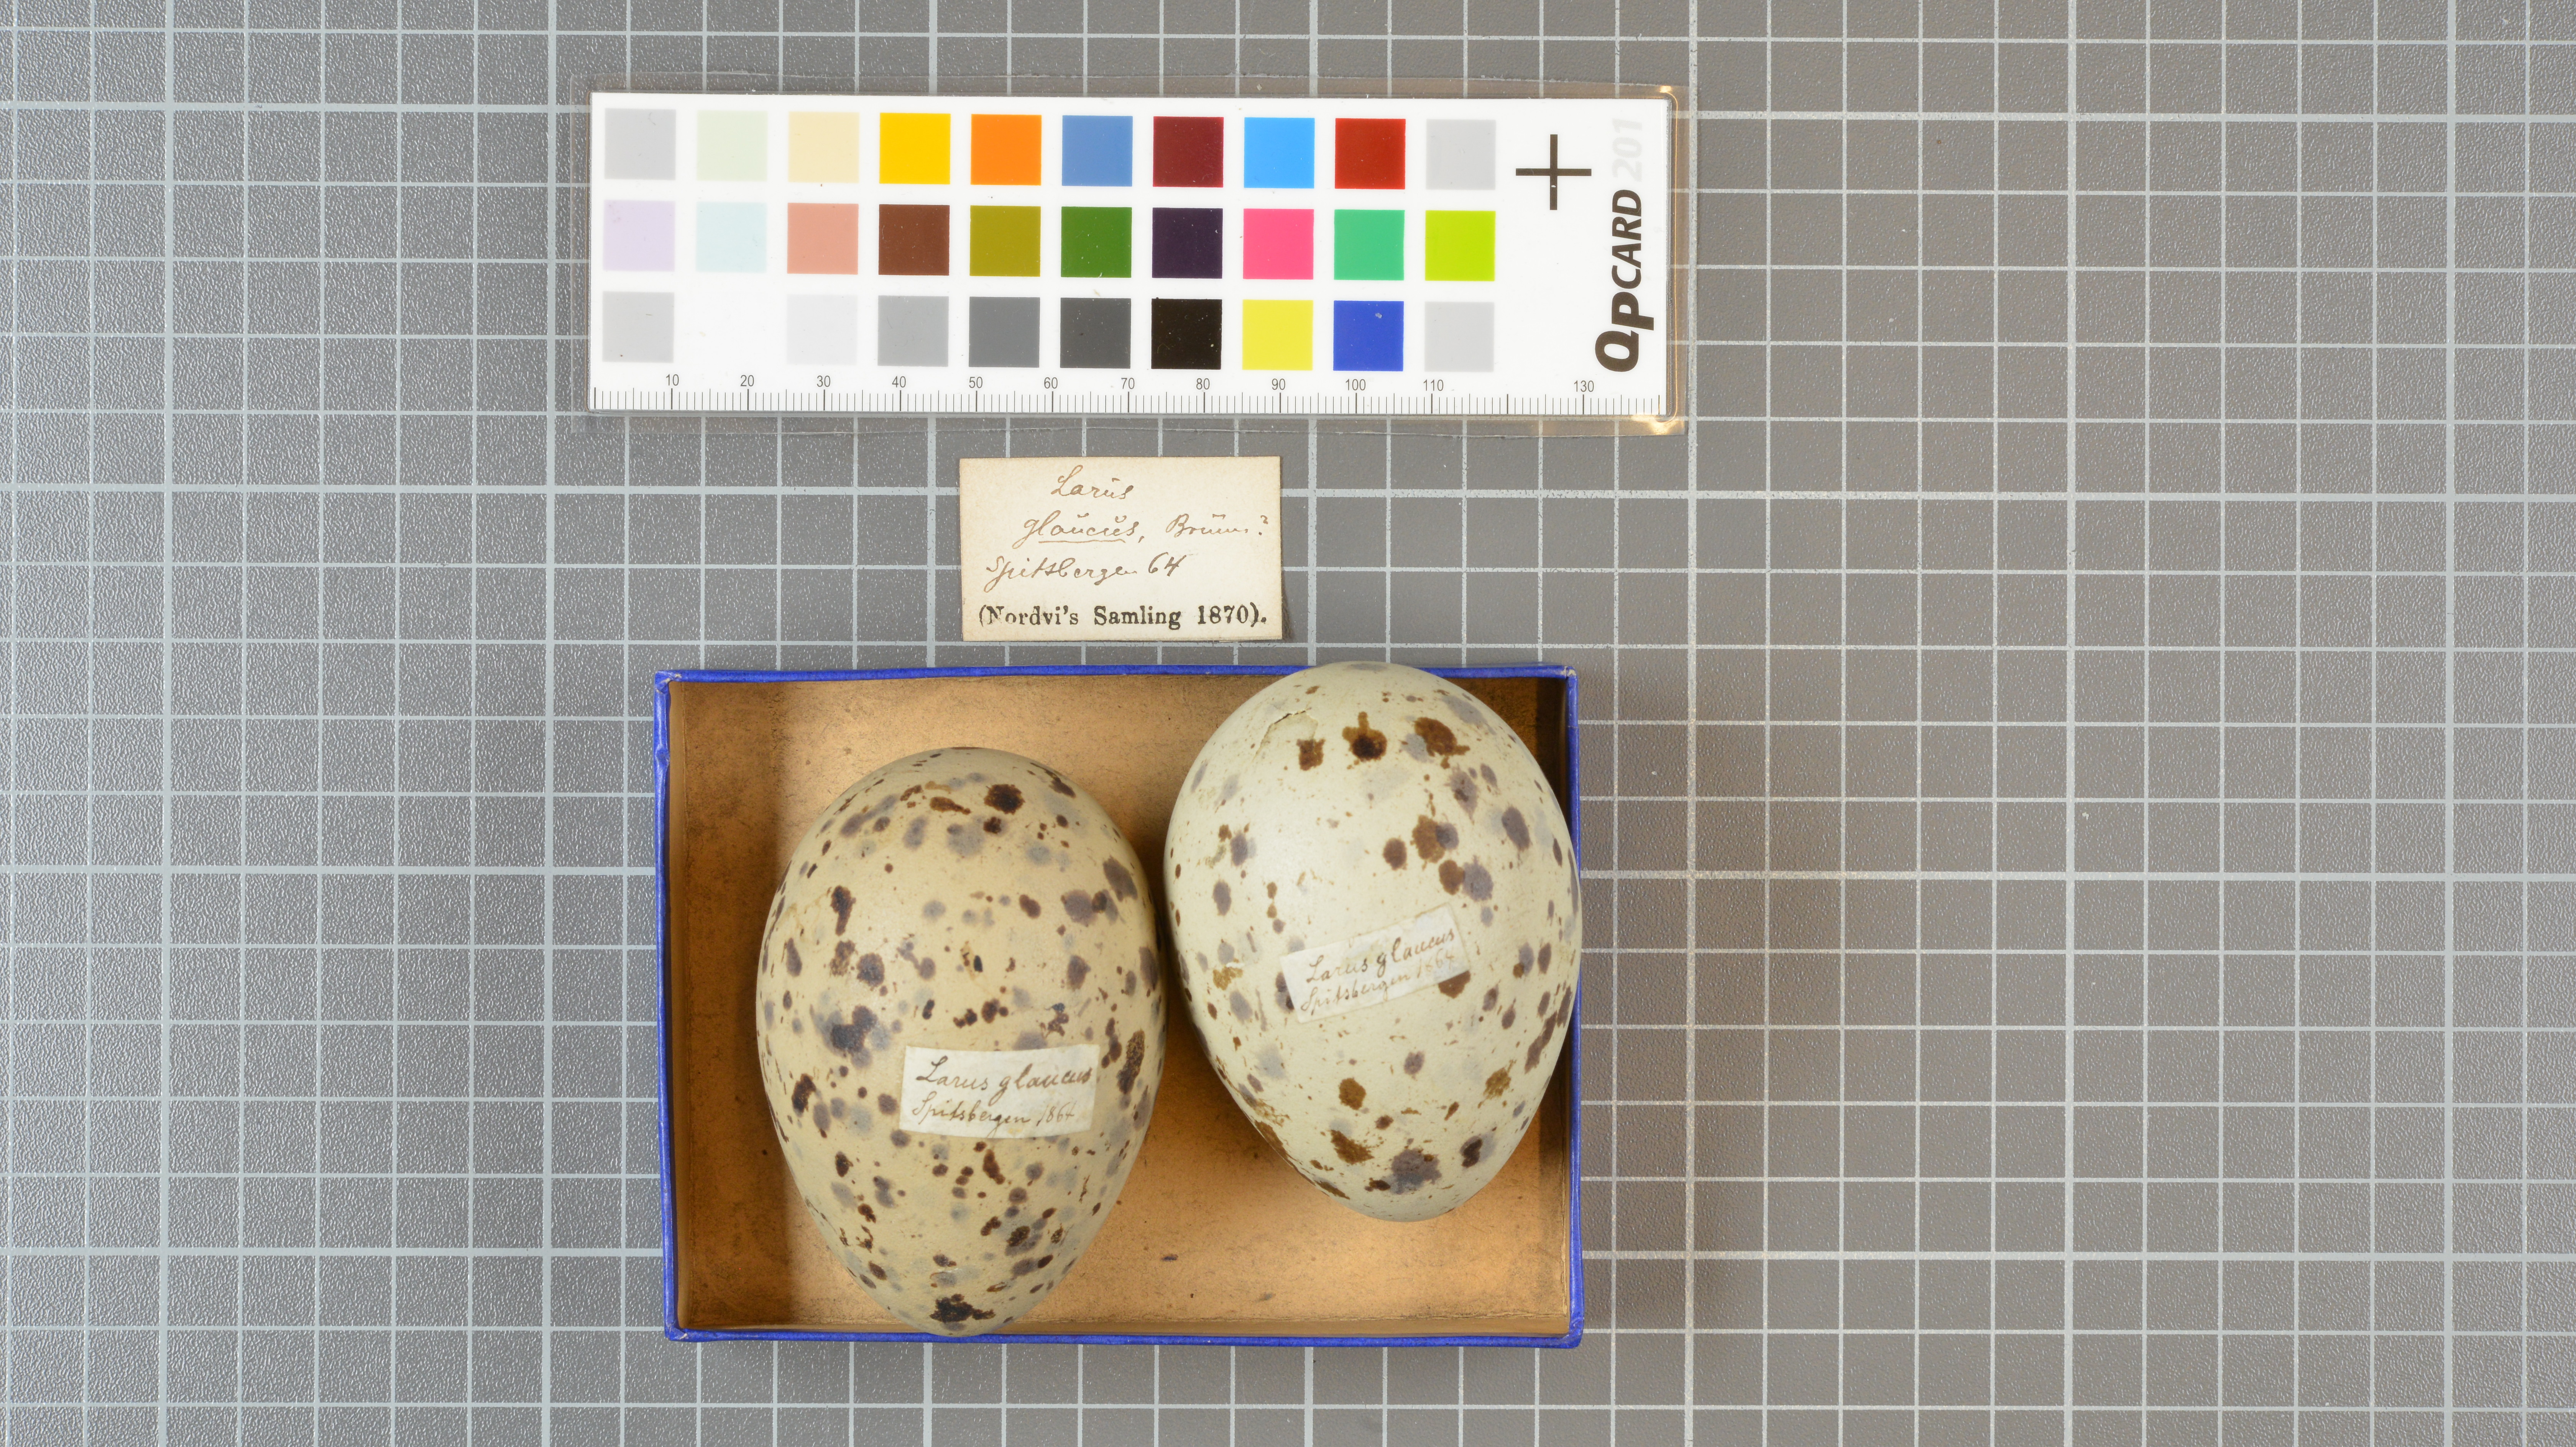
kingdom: Animalia
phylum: Chordata
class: Aves
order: Charadriiformes
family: Laridae
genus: Larus
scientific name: Larus hyperboreus
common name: Glaucous gull
